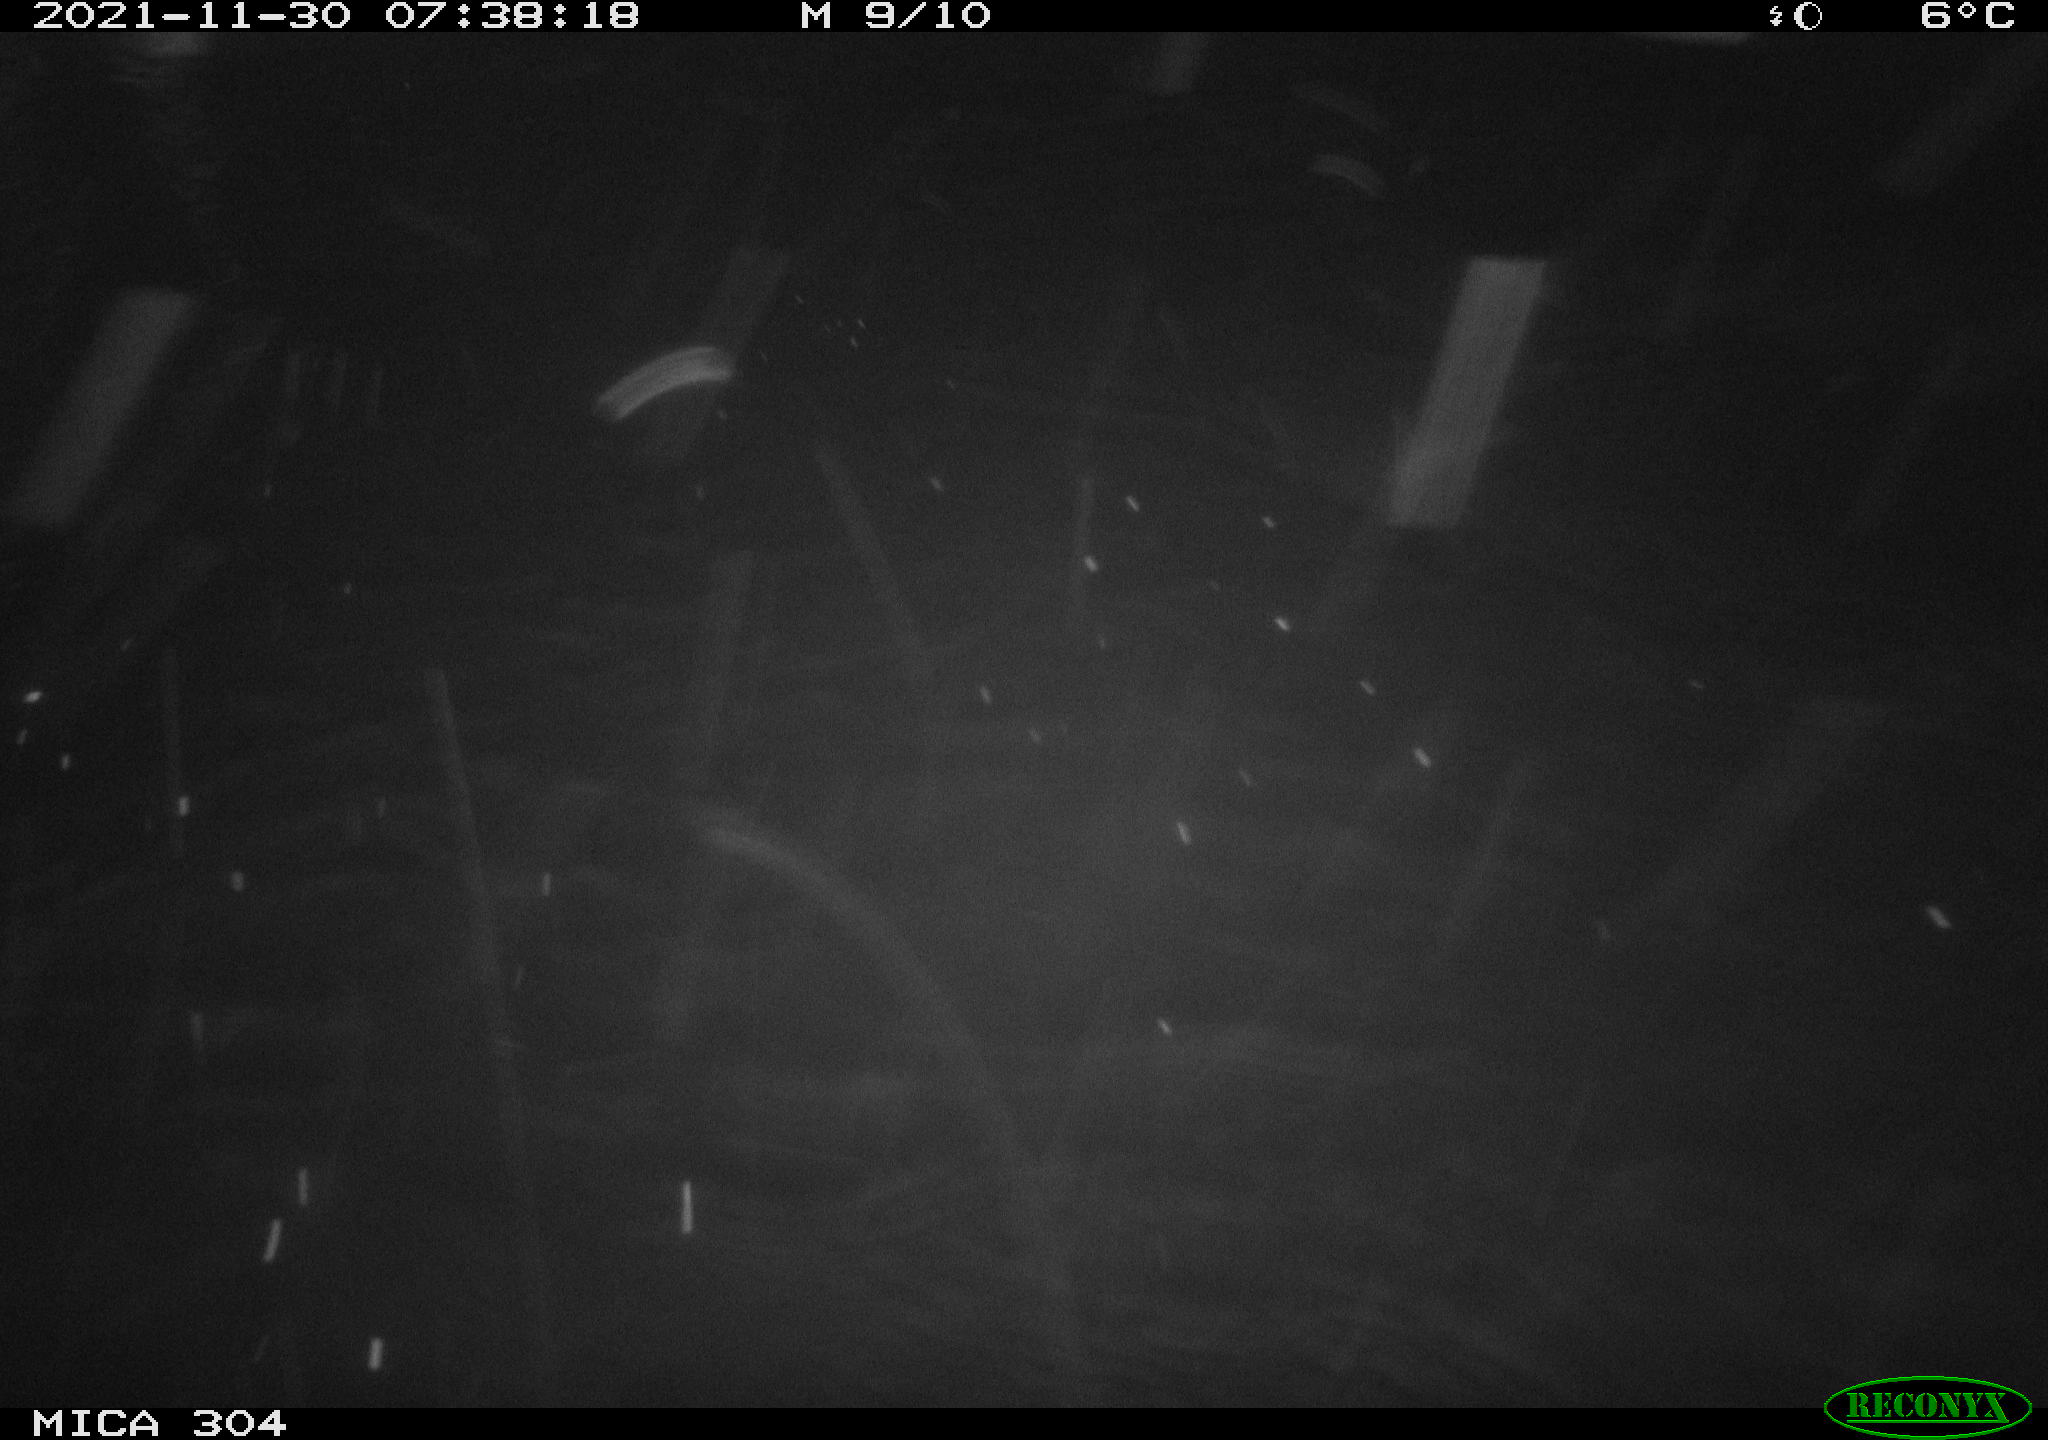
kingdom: Animalia
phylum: Chordata
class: Aves
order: Gruiformes
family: Rallidae
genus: Fulica
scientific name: Fulica atra
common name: Eurasian coot
